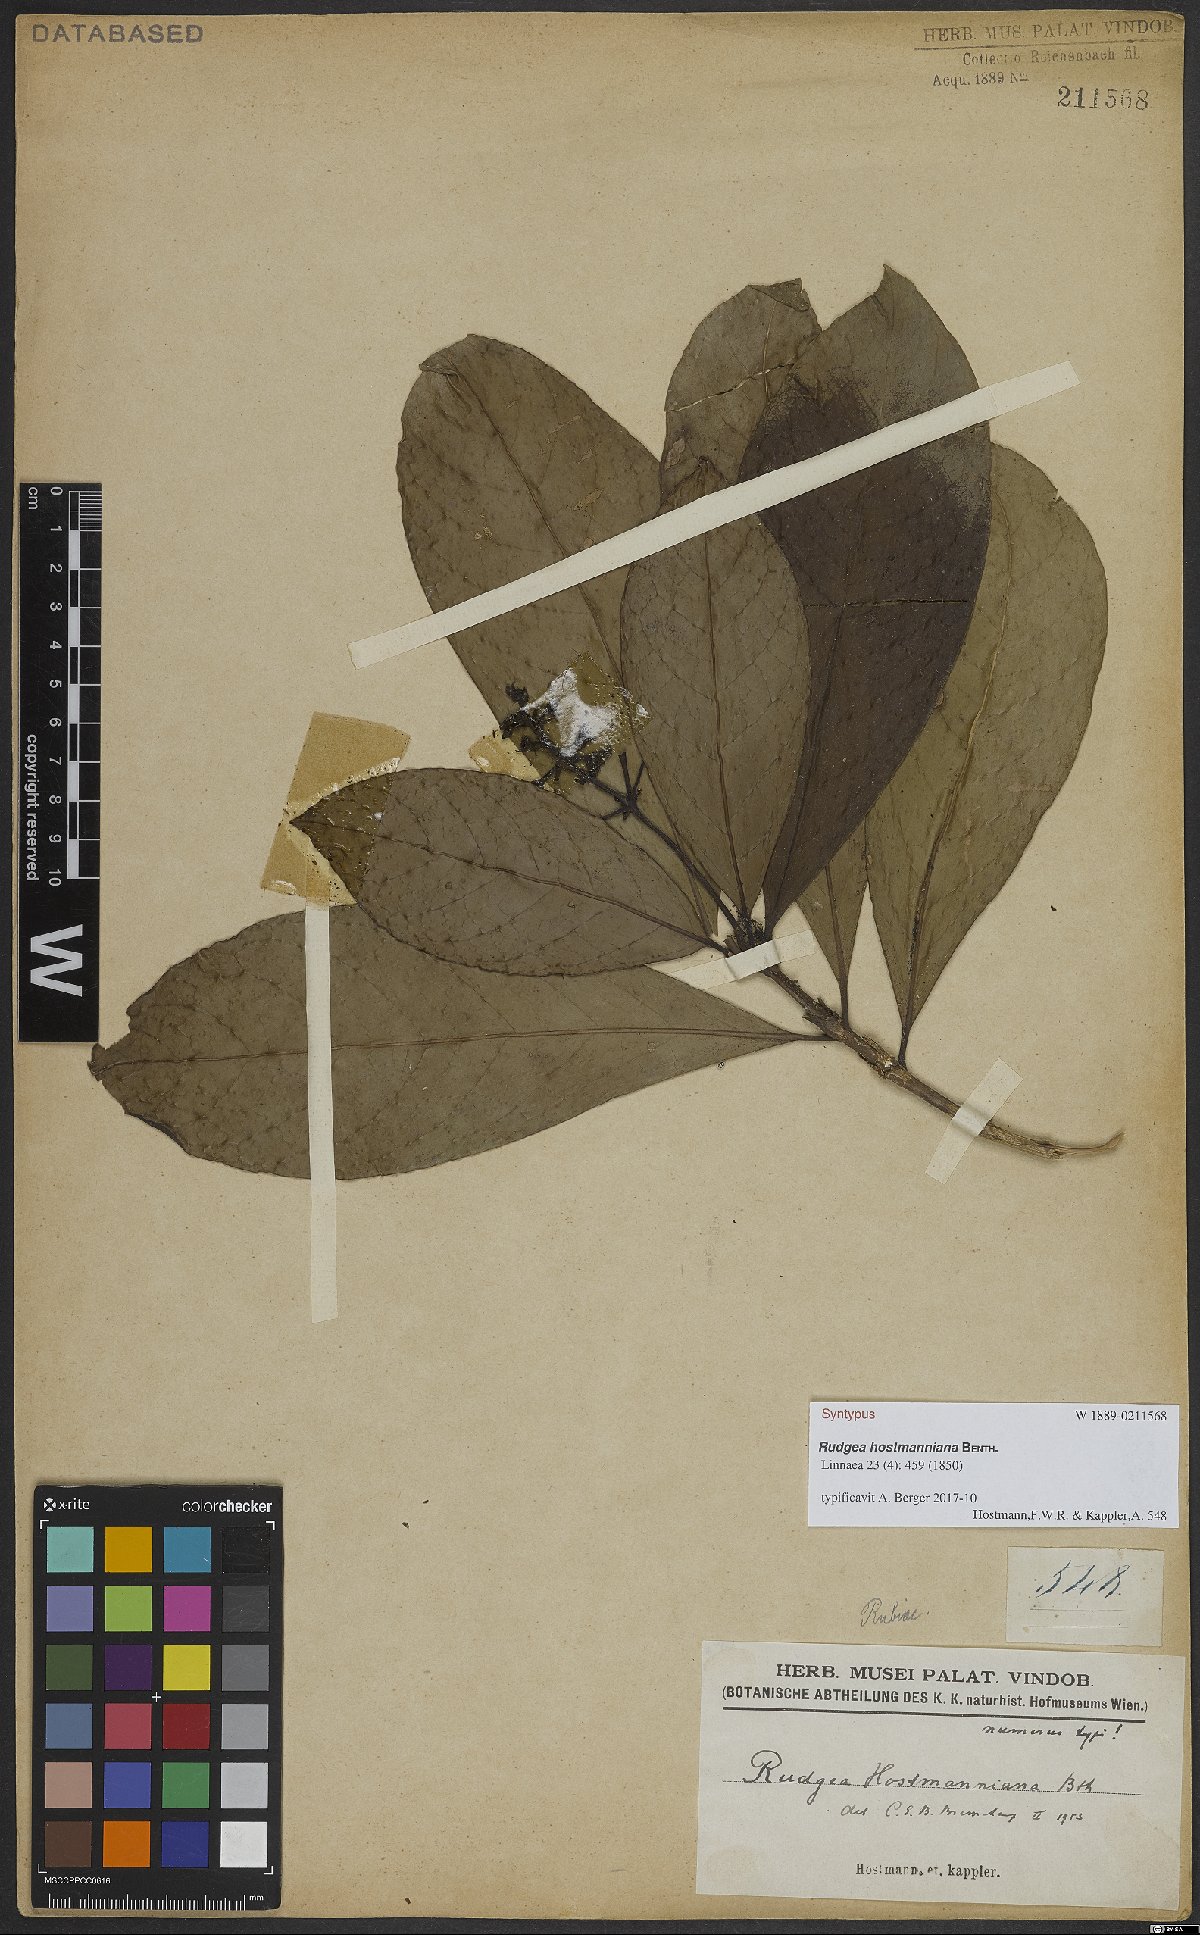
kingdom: Plantae
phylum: Tracheophyta
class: Magnoliopsida
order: Gentianales
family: Rubiaceae
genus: Rudgea
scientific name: Rudgea hostmanniana
